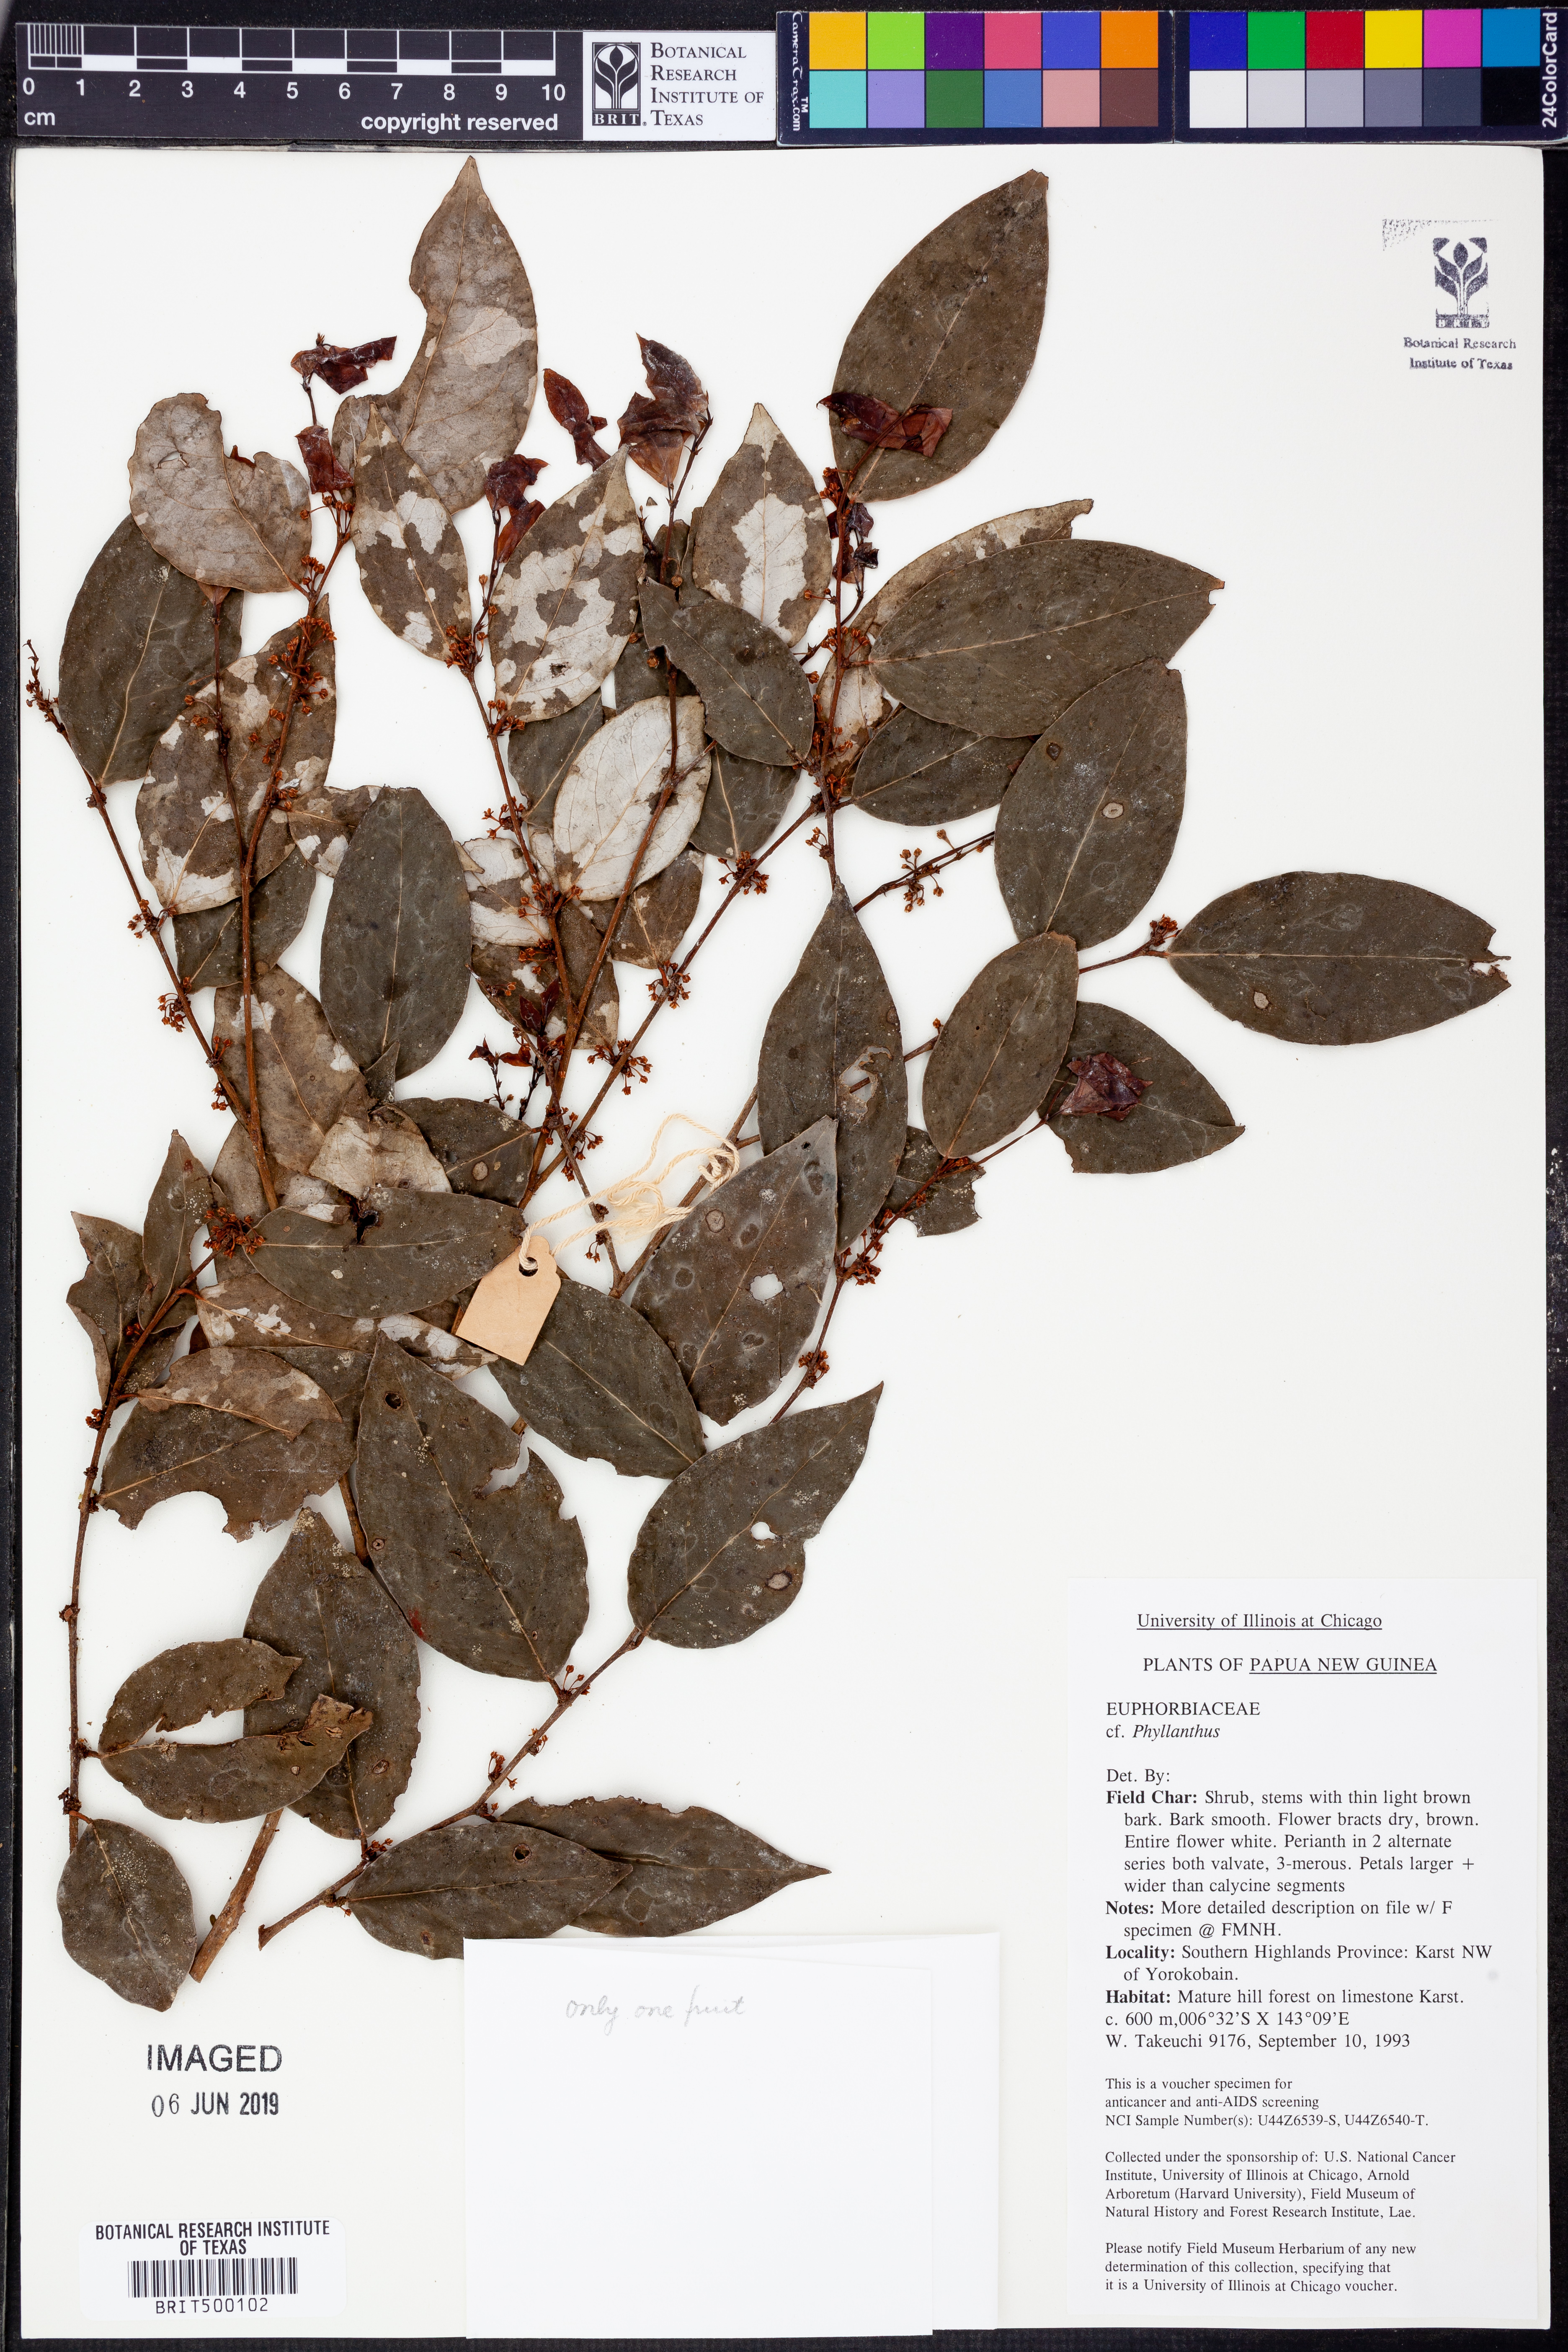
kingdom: Plantae
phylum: Tracheophyta
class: Magnoliopsida
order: Malpighiales
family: Phyllanthaceae
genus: Phyllanthus
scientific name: Phyllanthus
